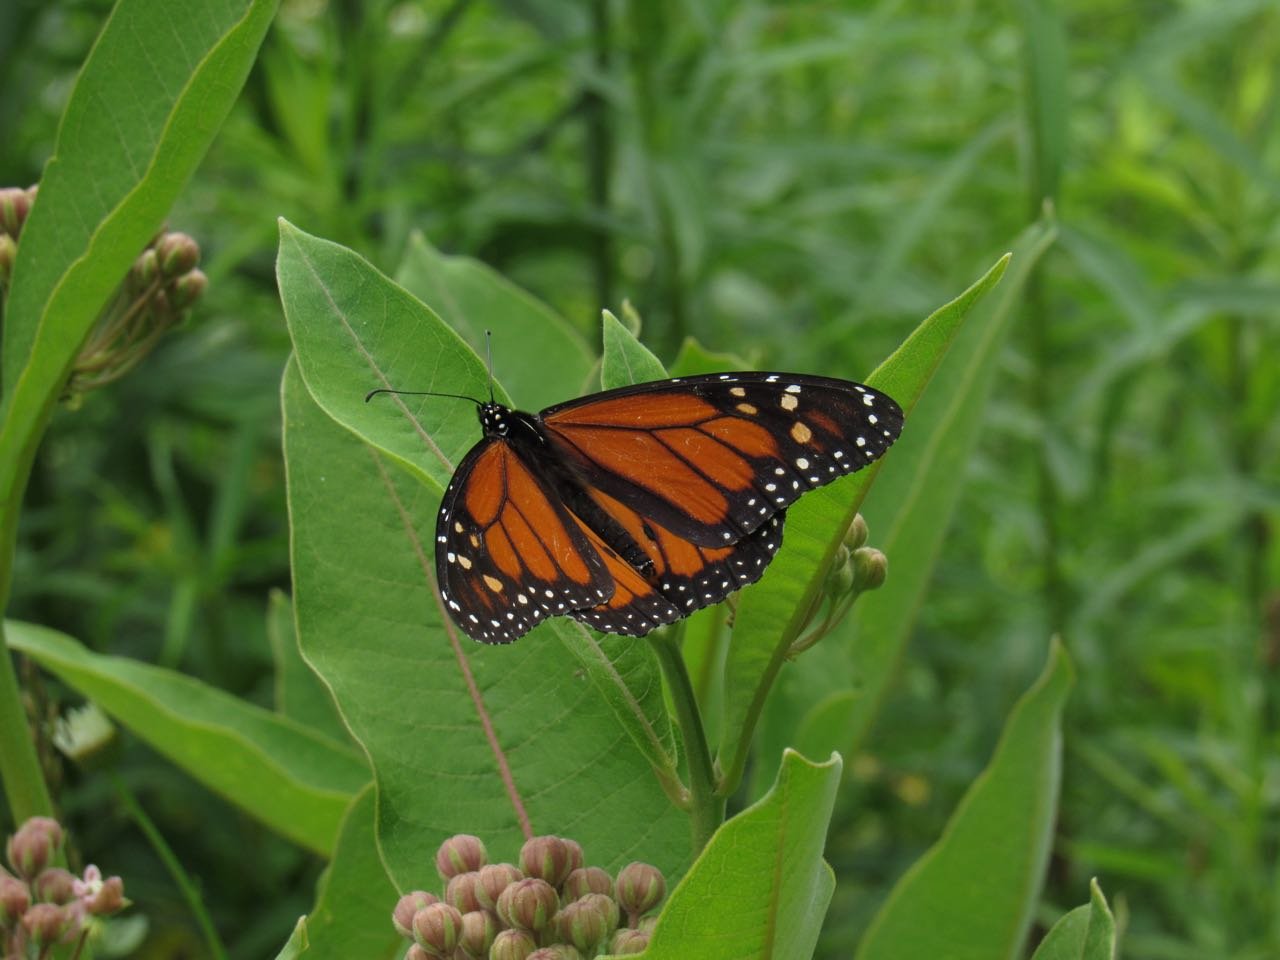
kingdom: Animalia
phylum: Arthropoda
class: Insecta
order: Lepidoptera
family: Nymphalidae
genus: Danaus
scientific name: Danaus plexippus
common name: Monarch
